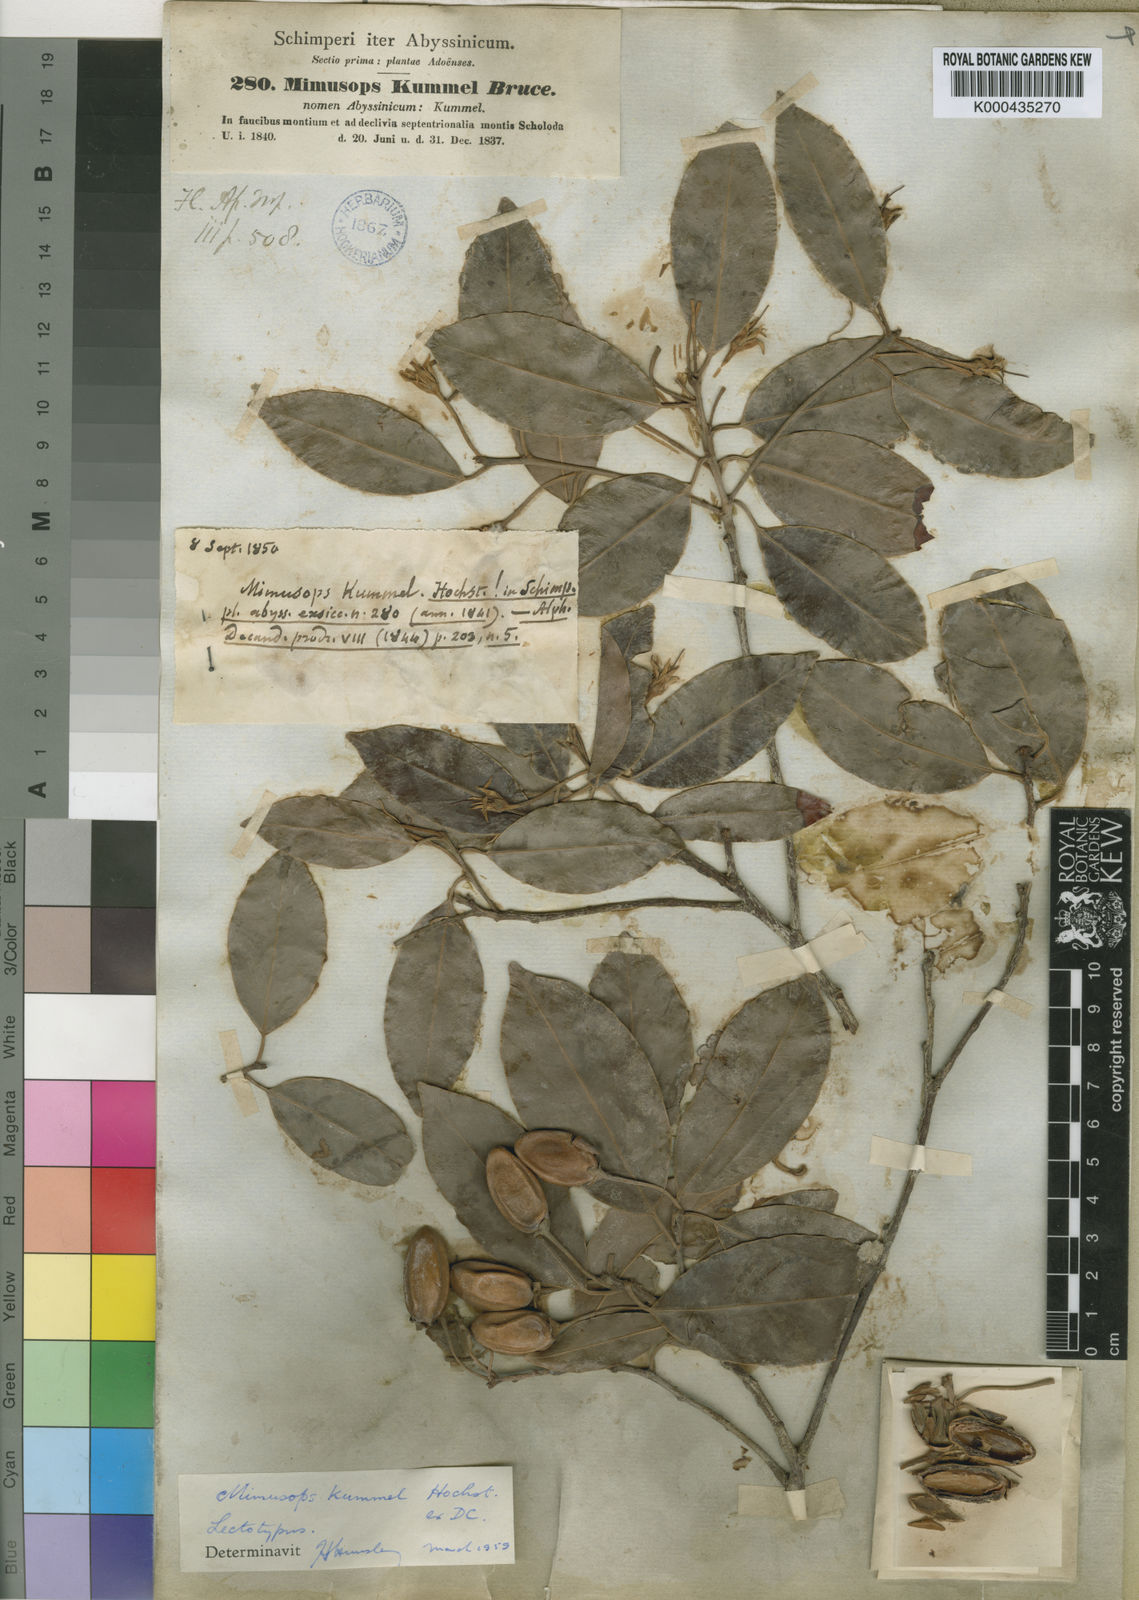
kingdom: Plantae
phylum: Tracheophyta
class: Magnoliopsida
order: Ericales
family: Sapotaceae
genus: Mimusops
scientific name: Mimusops kummel
